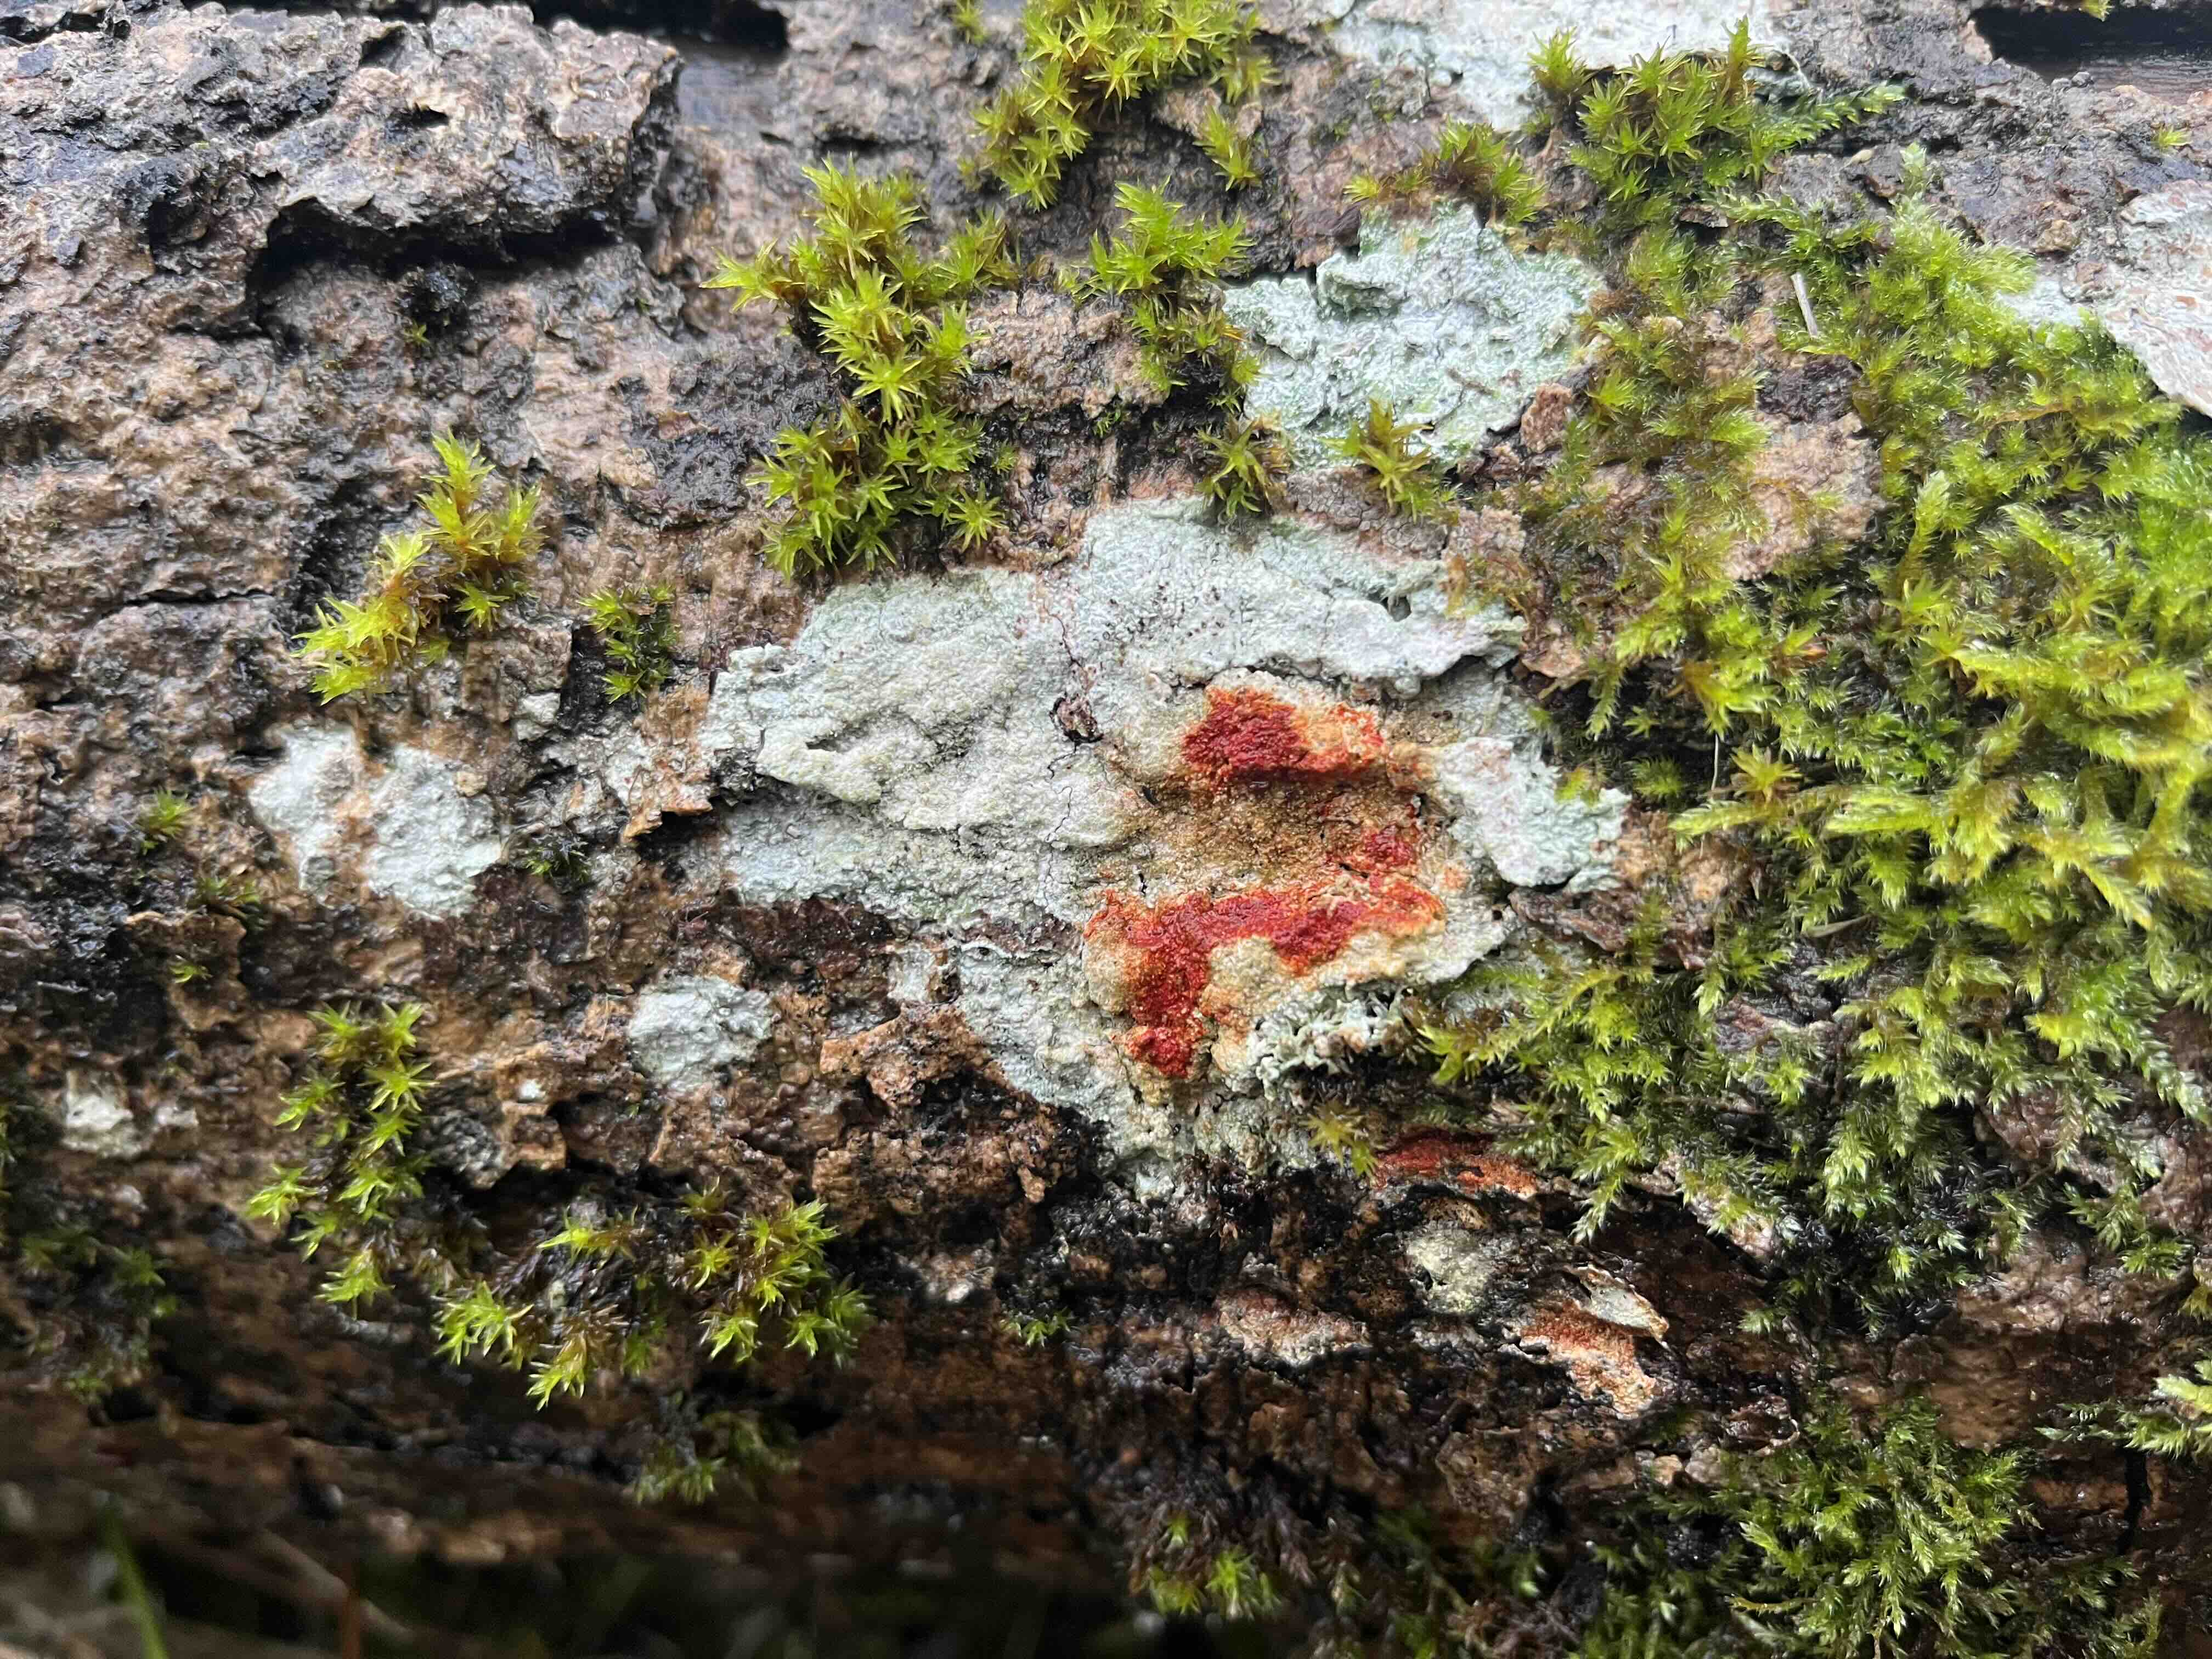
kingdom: Fungi
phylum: Ascomycota
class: Lecanoromycetes
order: Pertusariales
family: Pertusariaceae
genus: Lepra
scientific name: Lepra albescens
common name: hvidmelet prikvortelav
